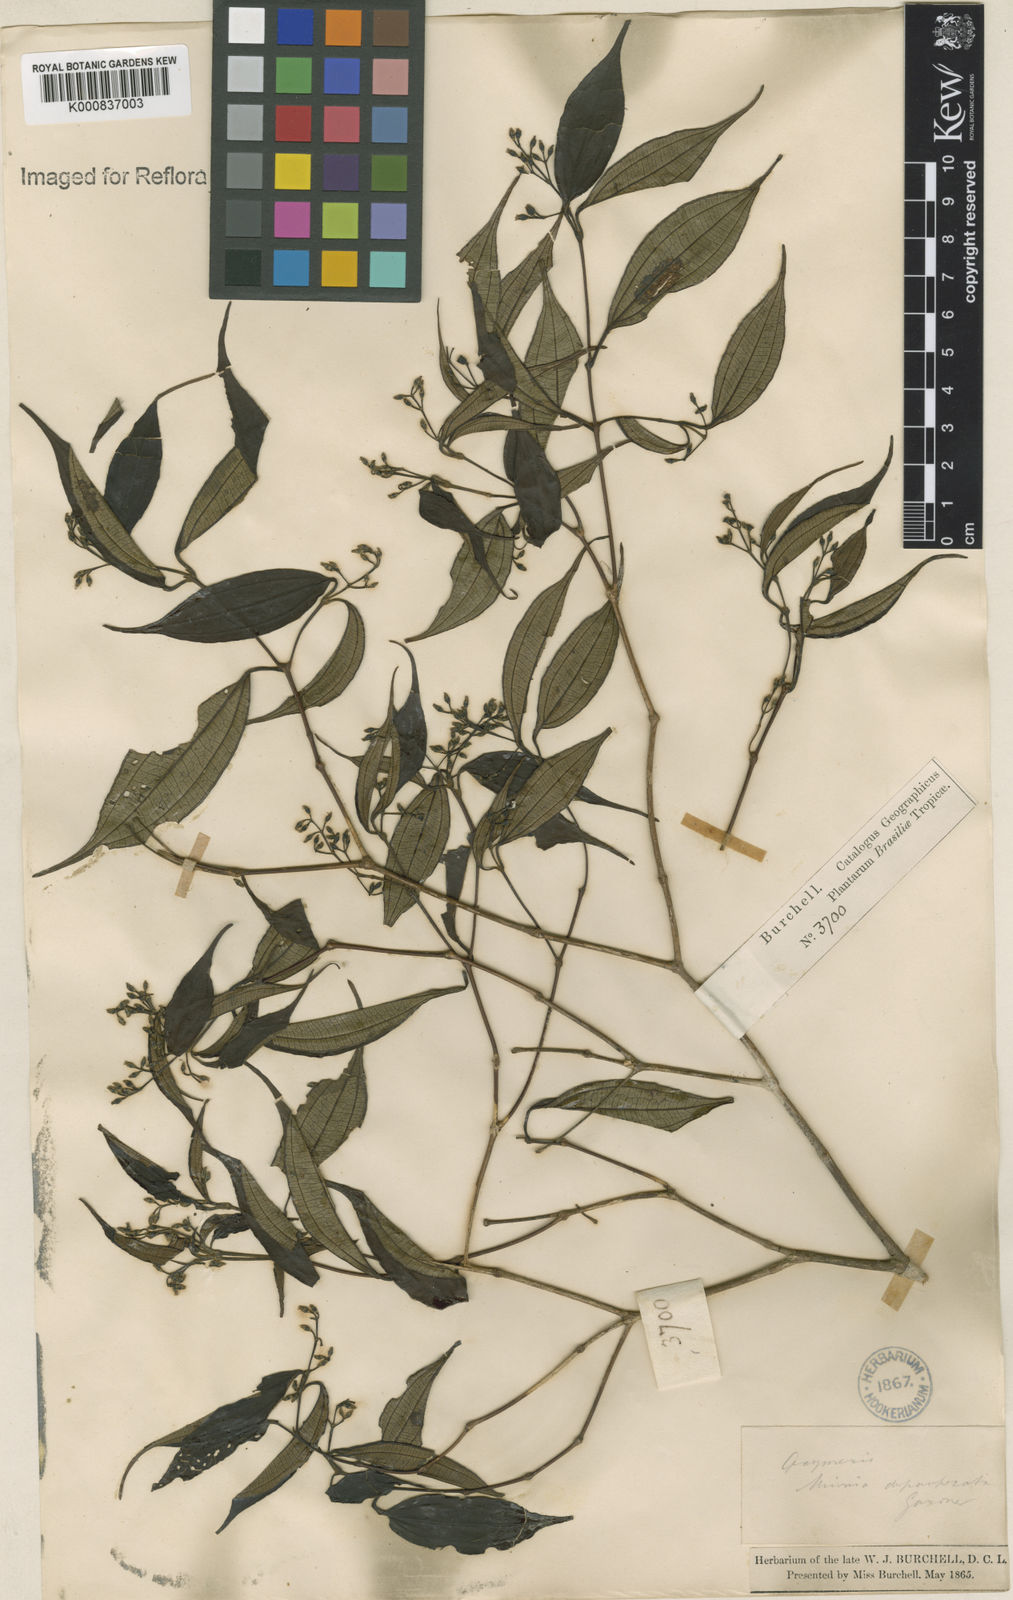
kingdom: Plantae
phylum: Tracheophyta
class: Magnoliopsida
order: Myrtales
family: Melastomataceae
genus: Miconia
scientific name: Miconia depauperata
